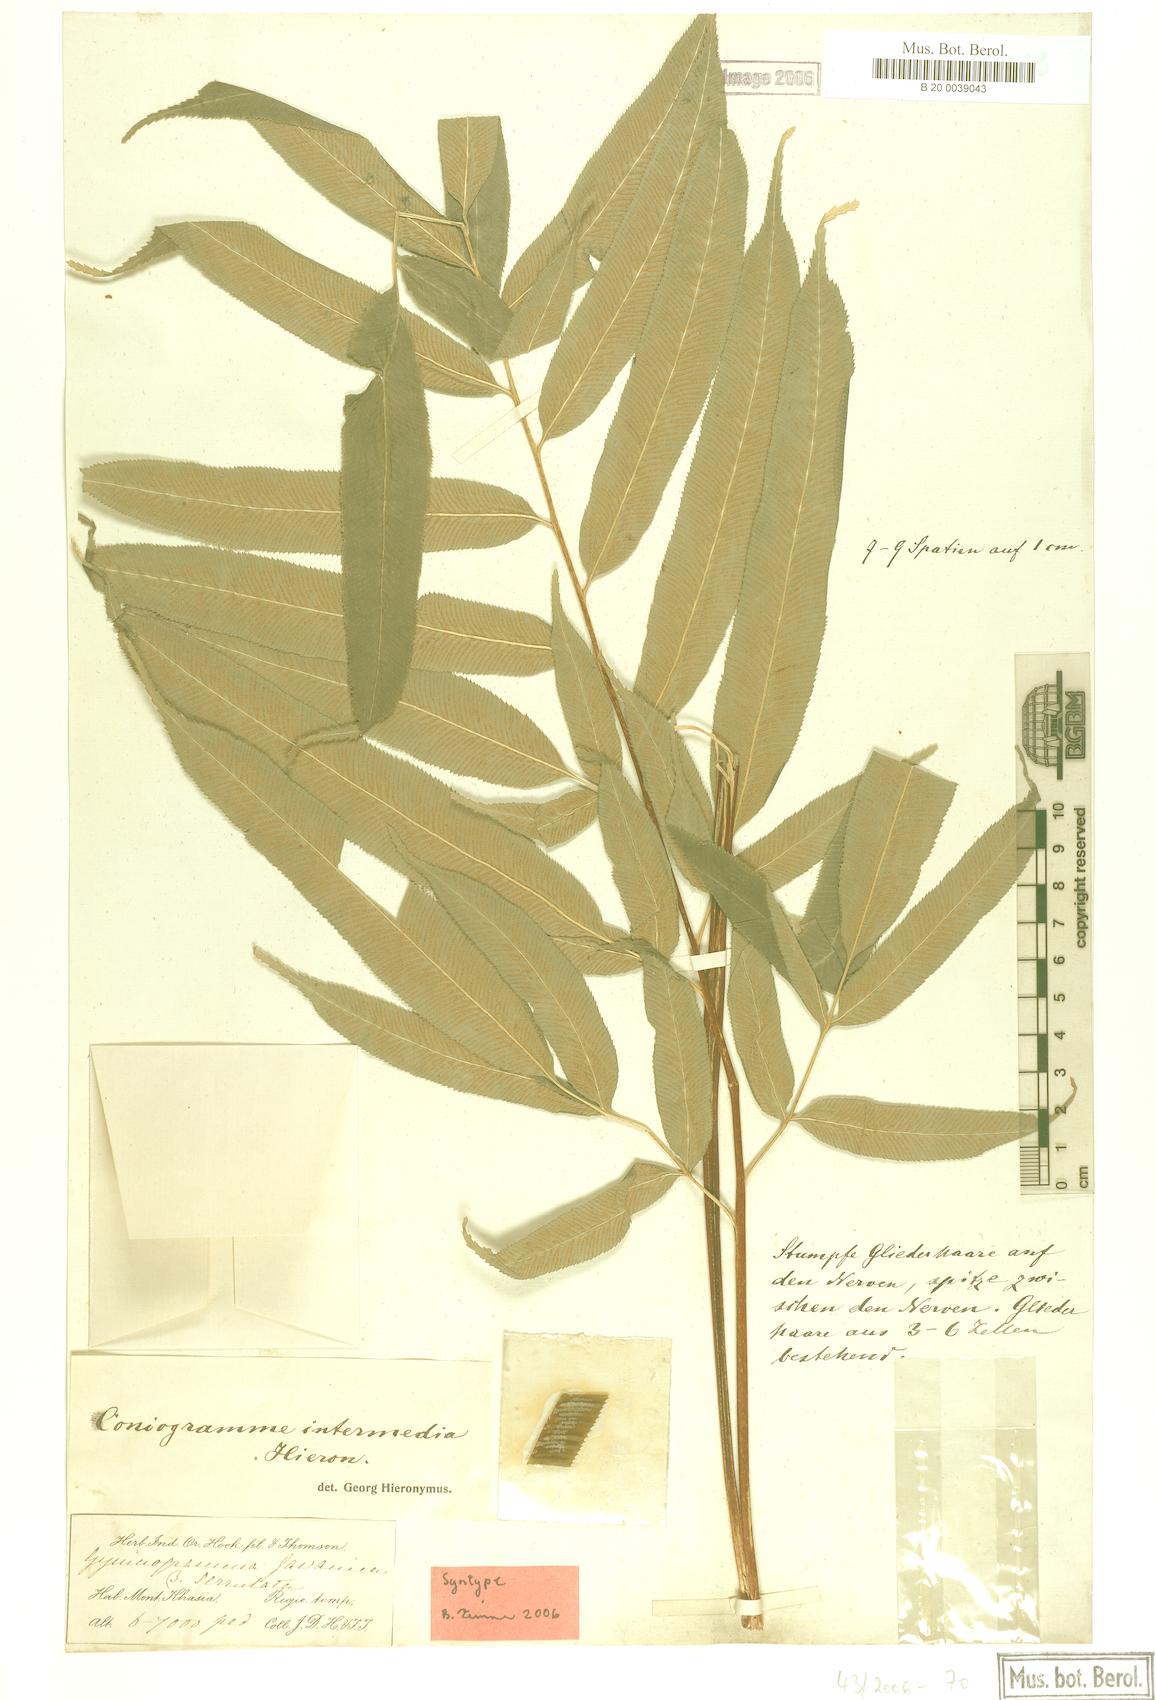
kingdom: Plantae
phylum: Tracheophyta
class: Polypodiopsida
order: Polypodiales
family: Pteridaceae
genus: Coniogramme
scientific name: Coniogramme intermedia
